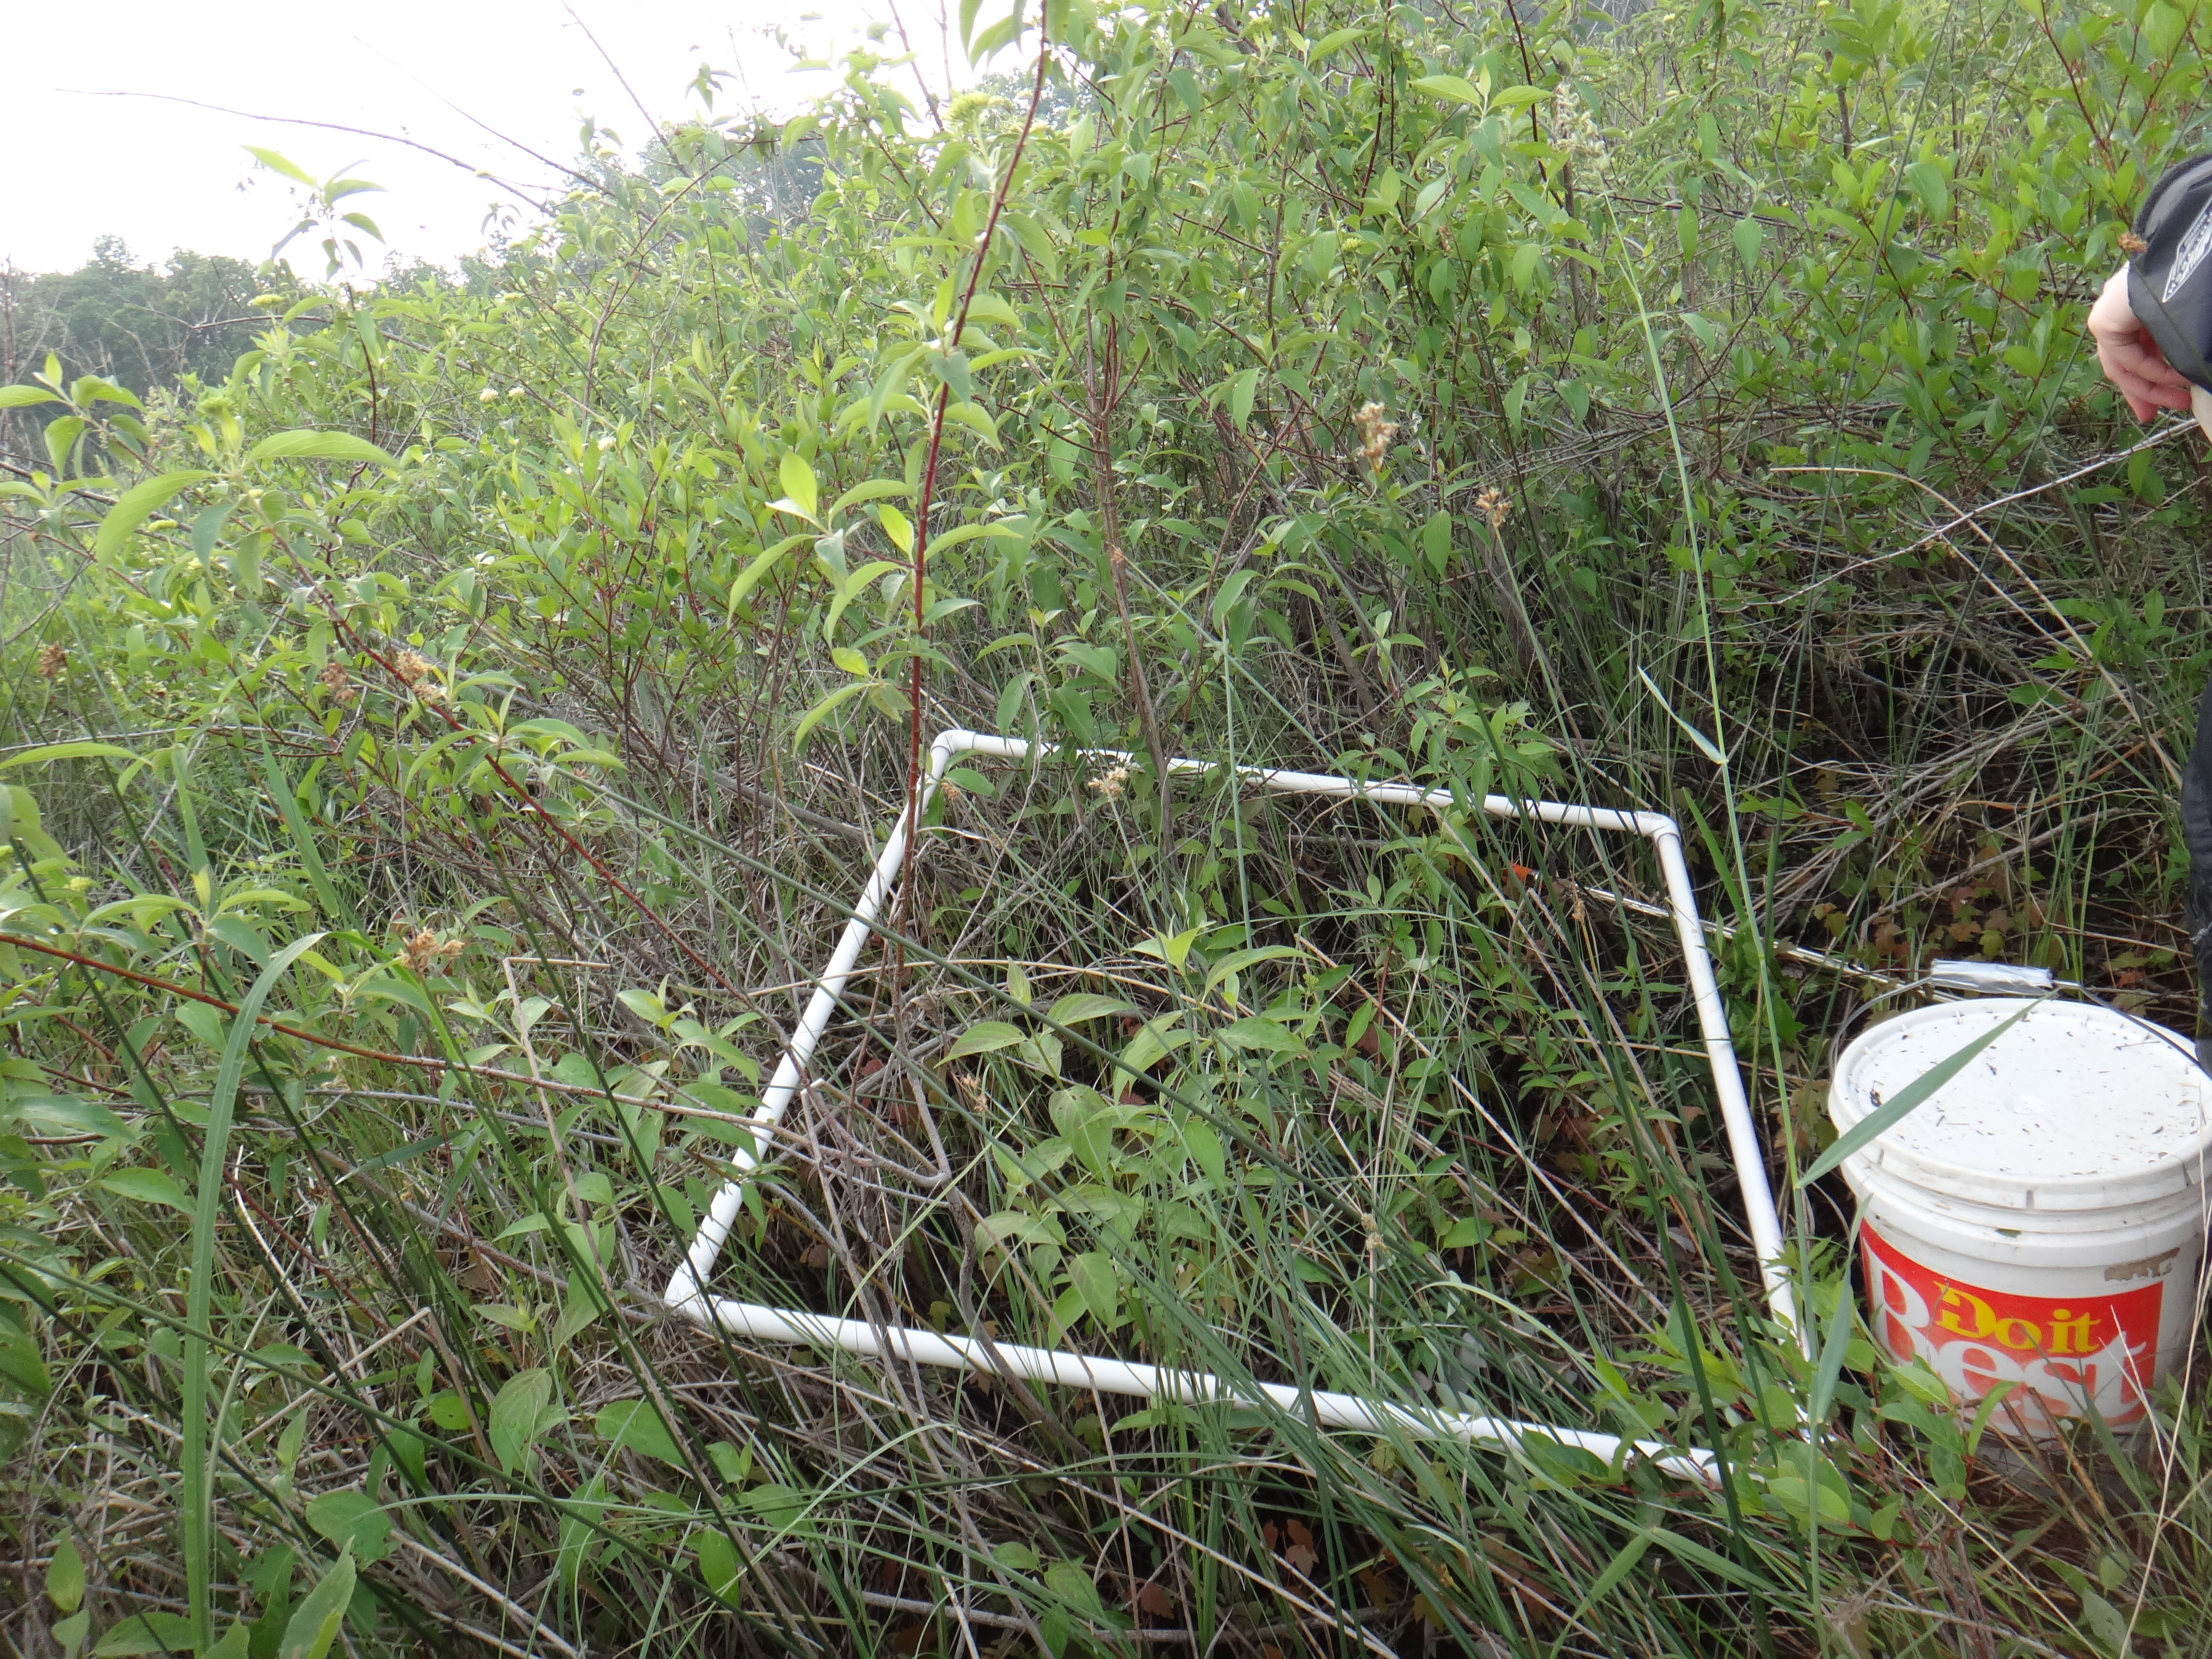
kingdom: Plantae
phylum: Tracheophyta
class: Magnoliopsida
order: Cornales
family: Cornaceae
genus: Cornus
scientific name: Cornus foemina
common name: Swamp dogwood
